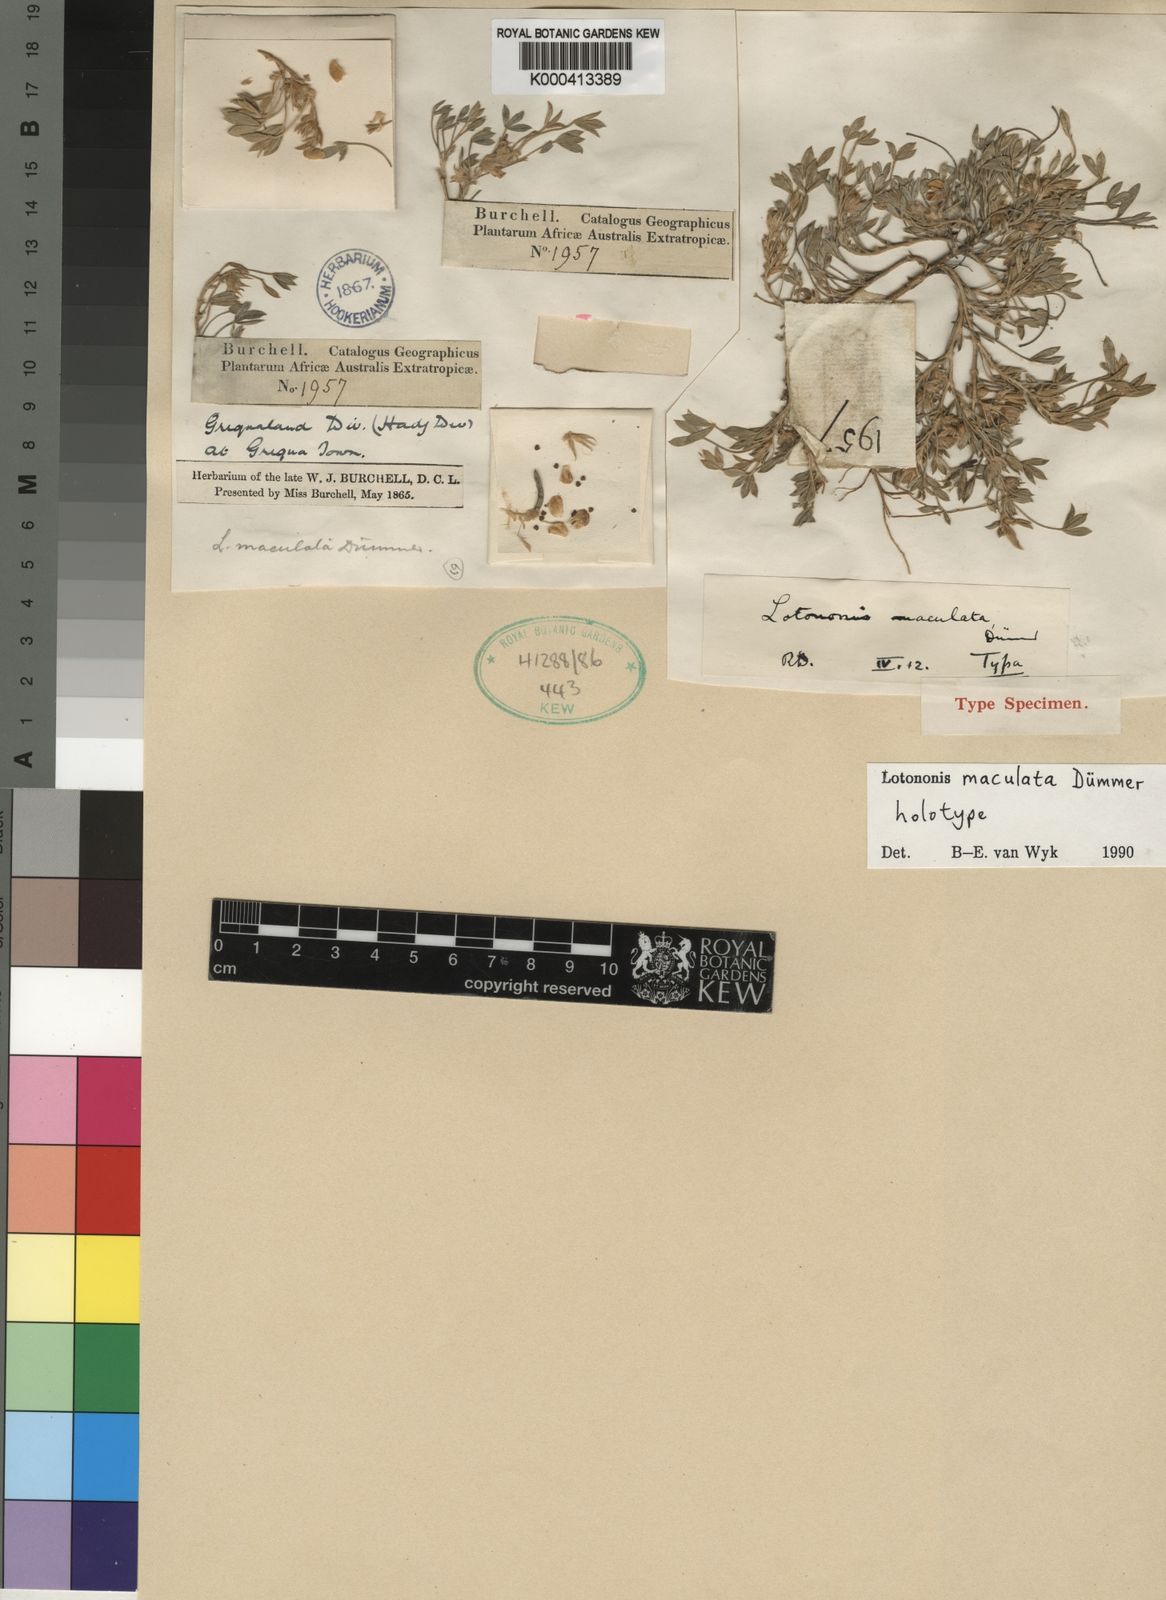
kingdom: Plantae
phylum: Tracheophyta
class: Magnoliopsida
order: Fabales
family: Fabaceae
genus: Lotononis
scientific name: Lotononis maculata
